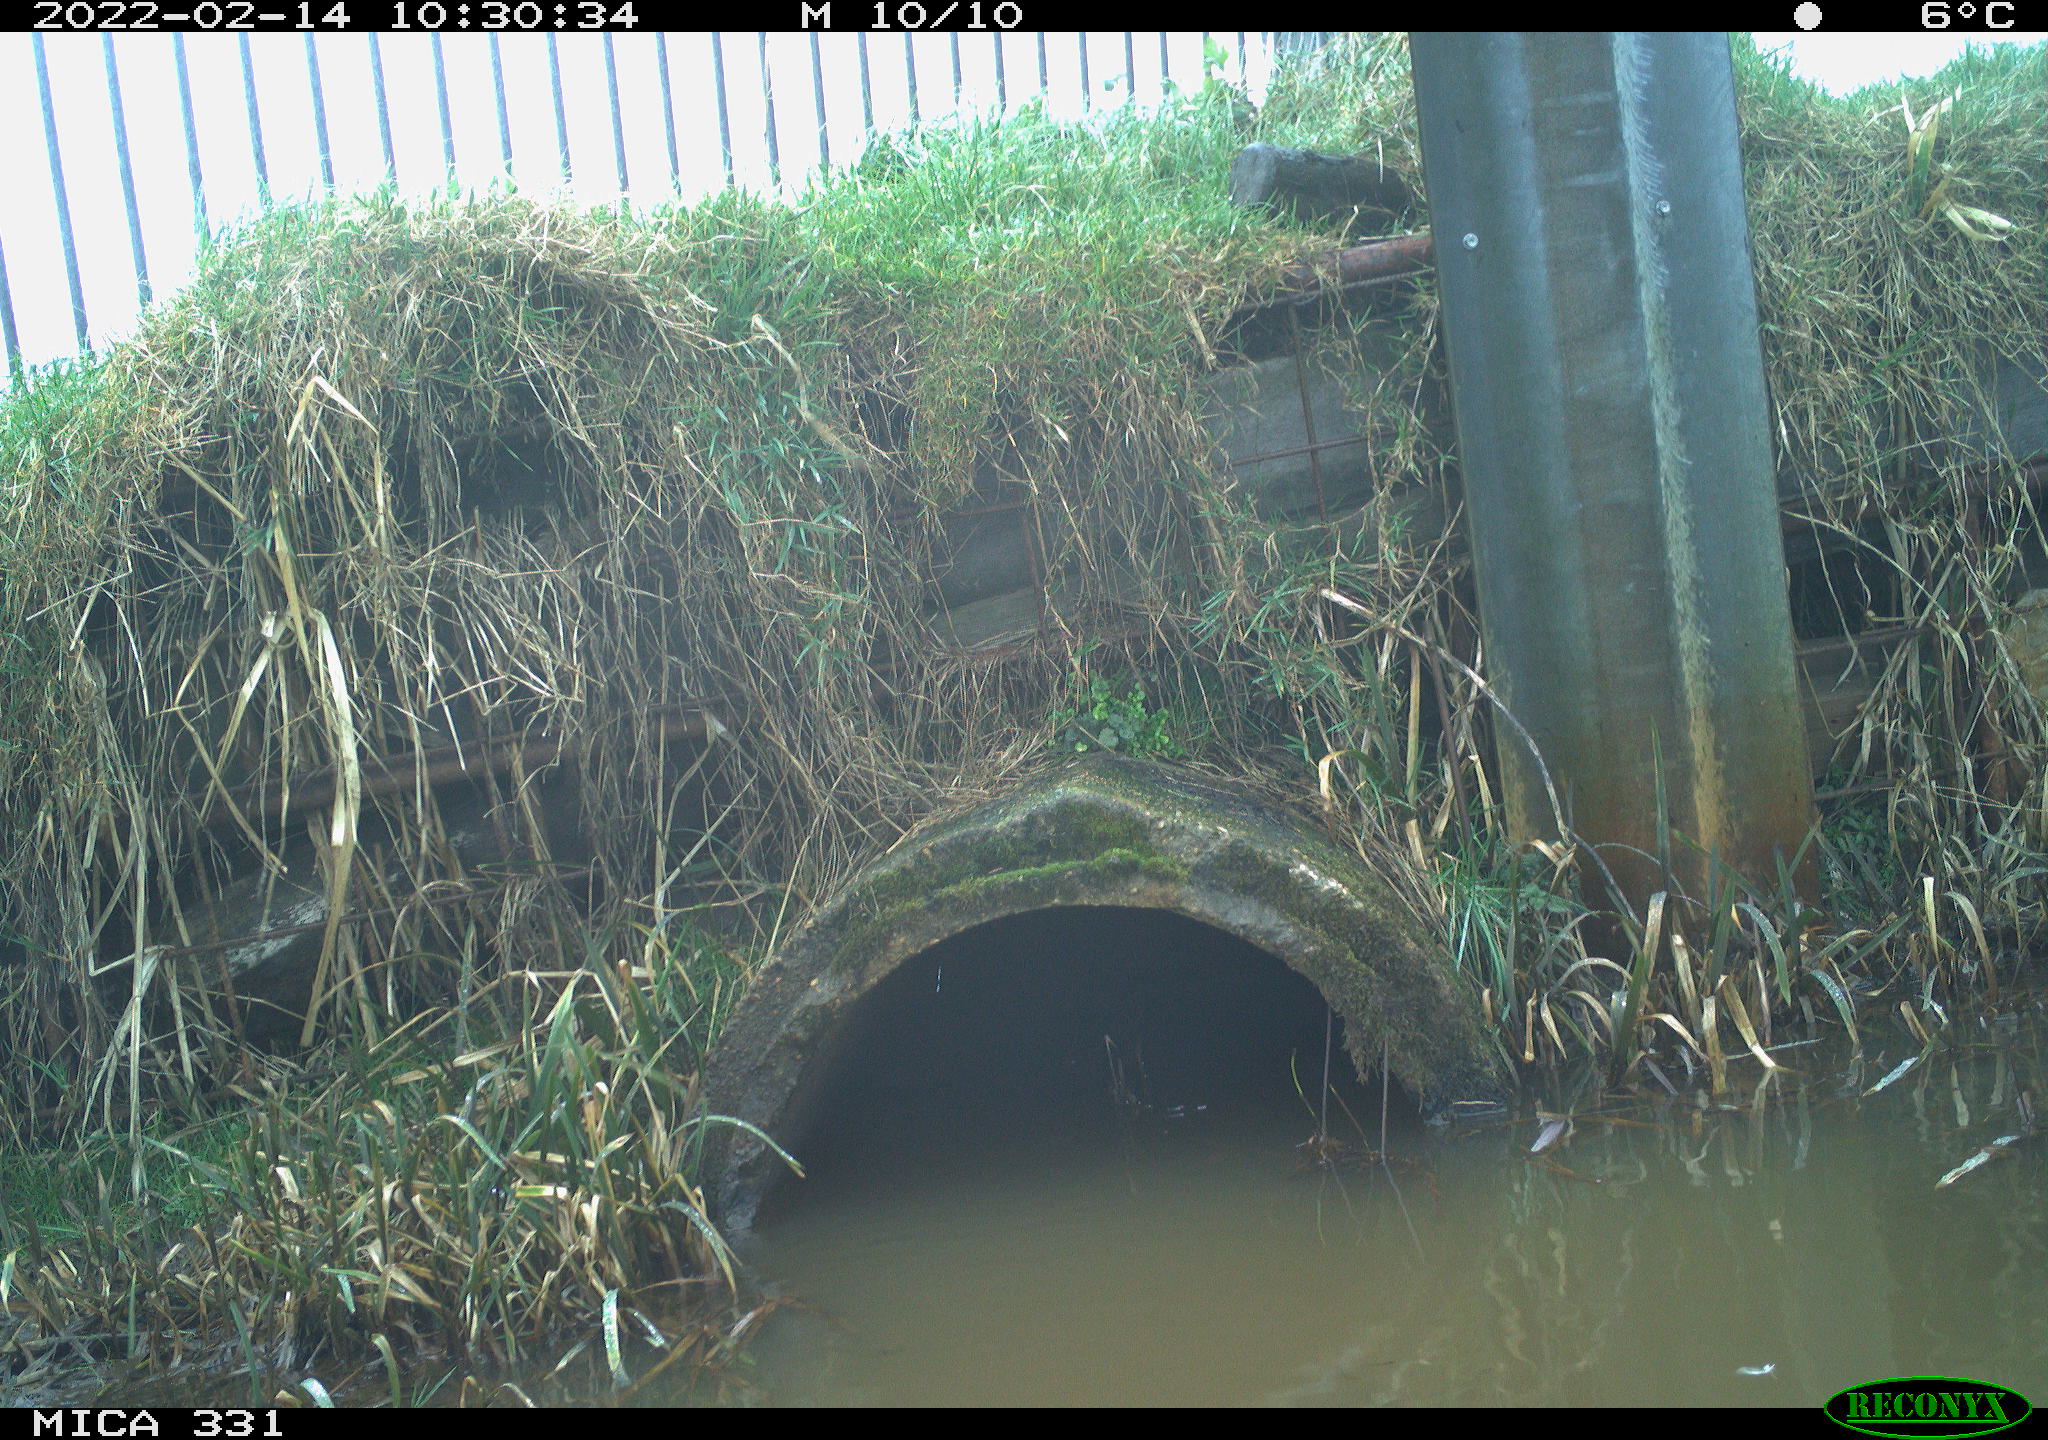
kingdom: Animalia
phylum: Chordata
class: Aves
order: Pelecaniformes
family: Ardeidae
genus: Ardea
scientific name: Ardea alba
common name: Great egret
